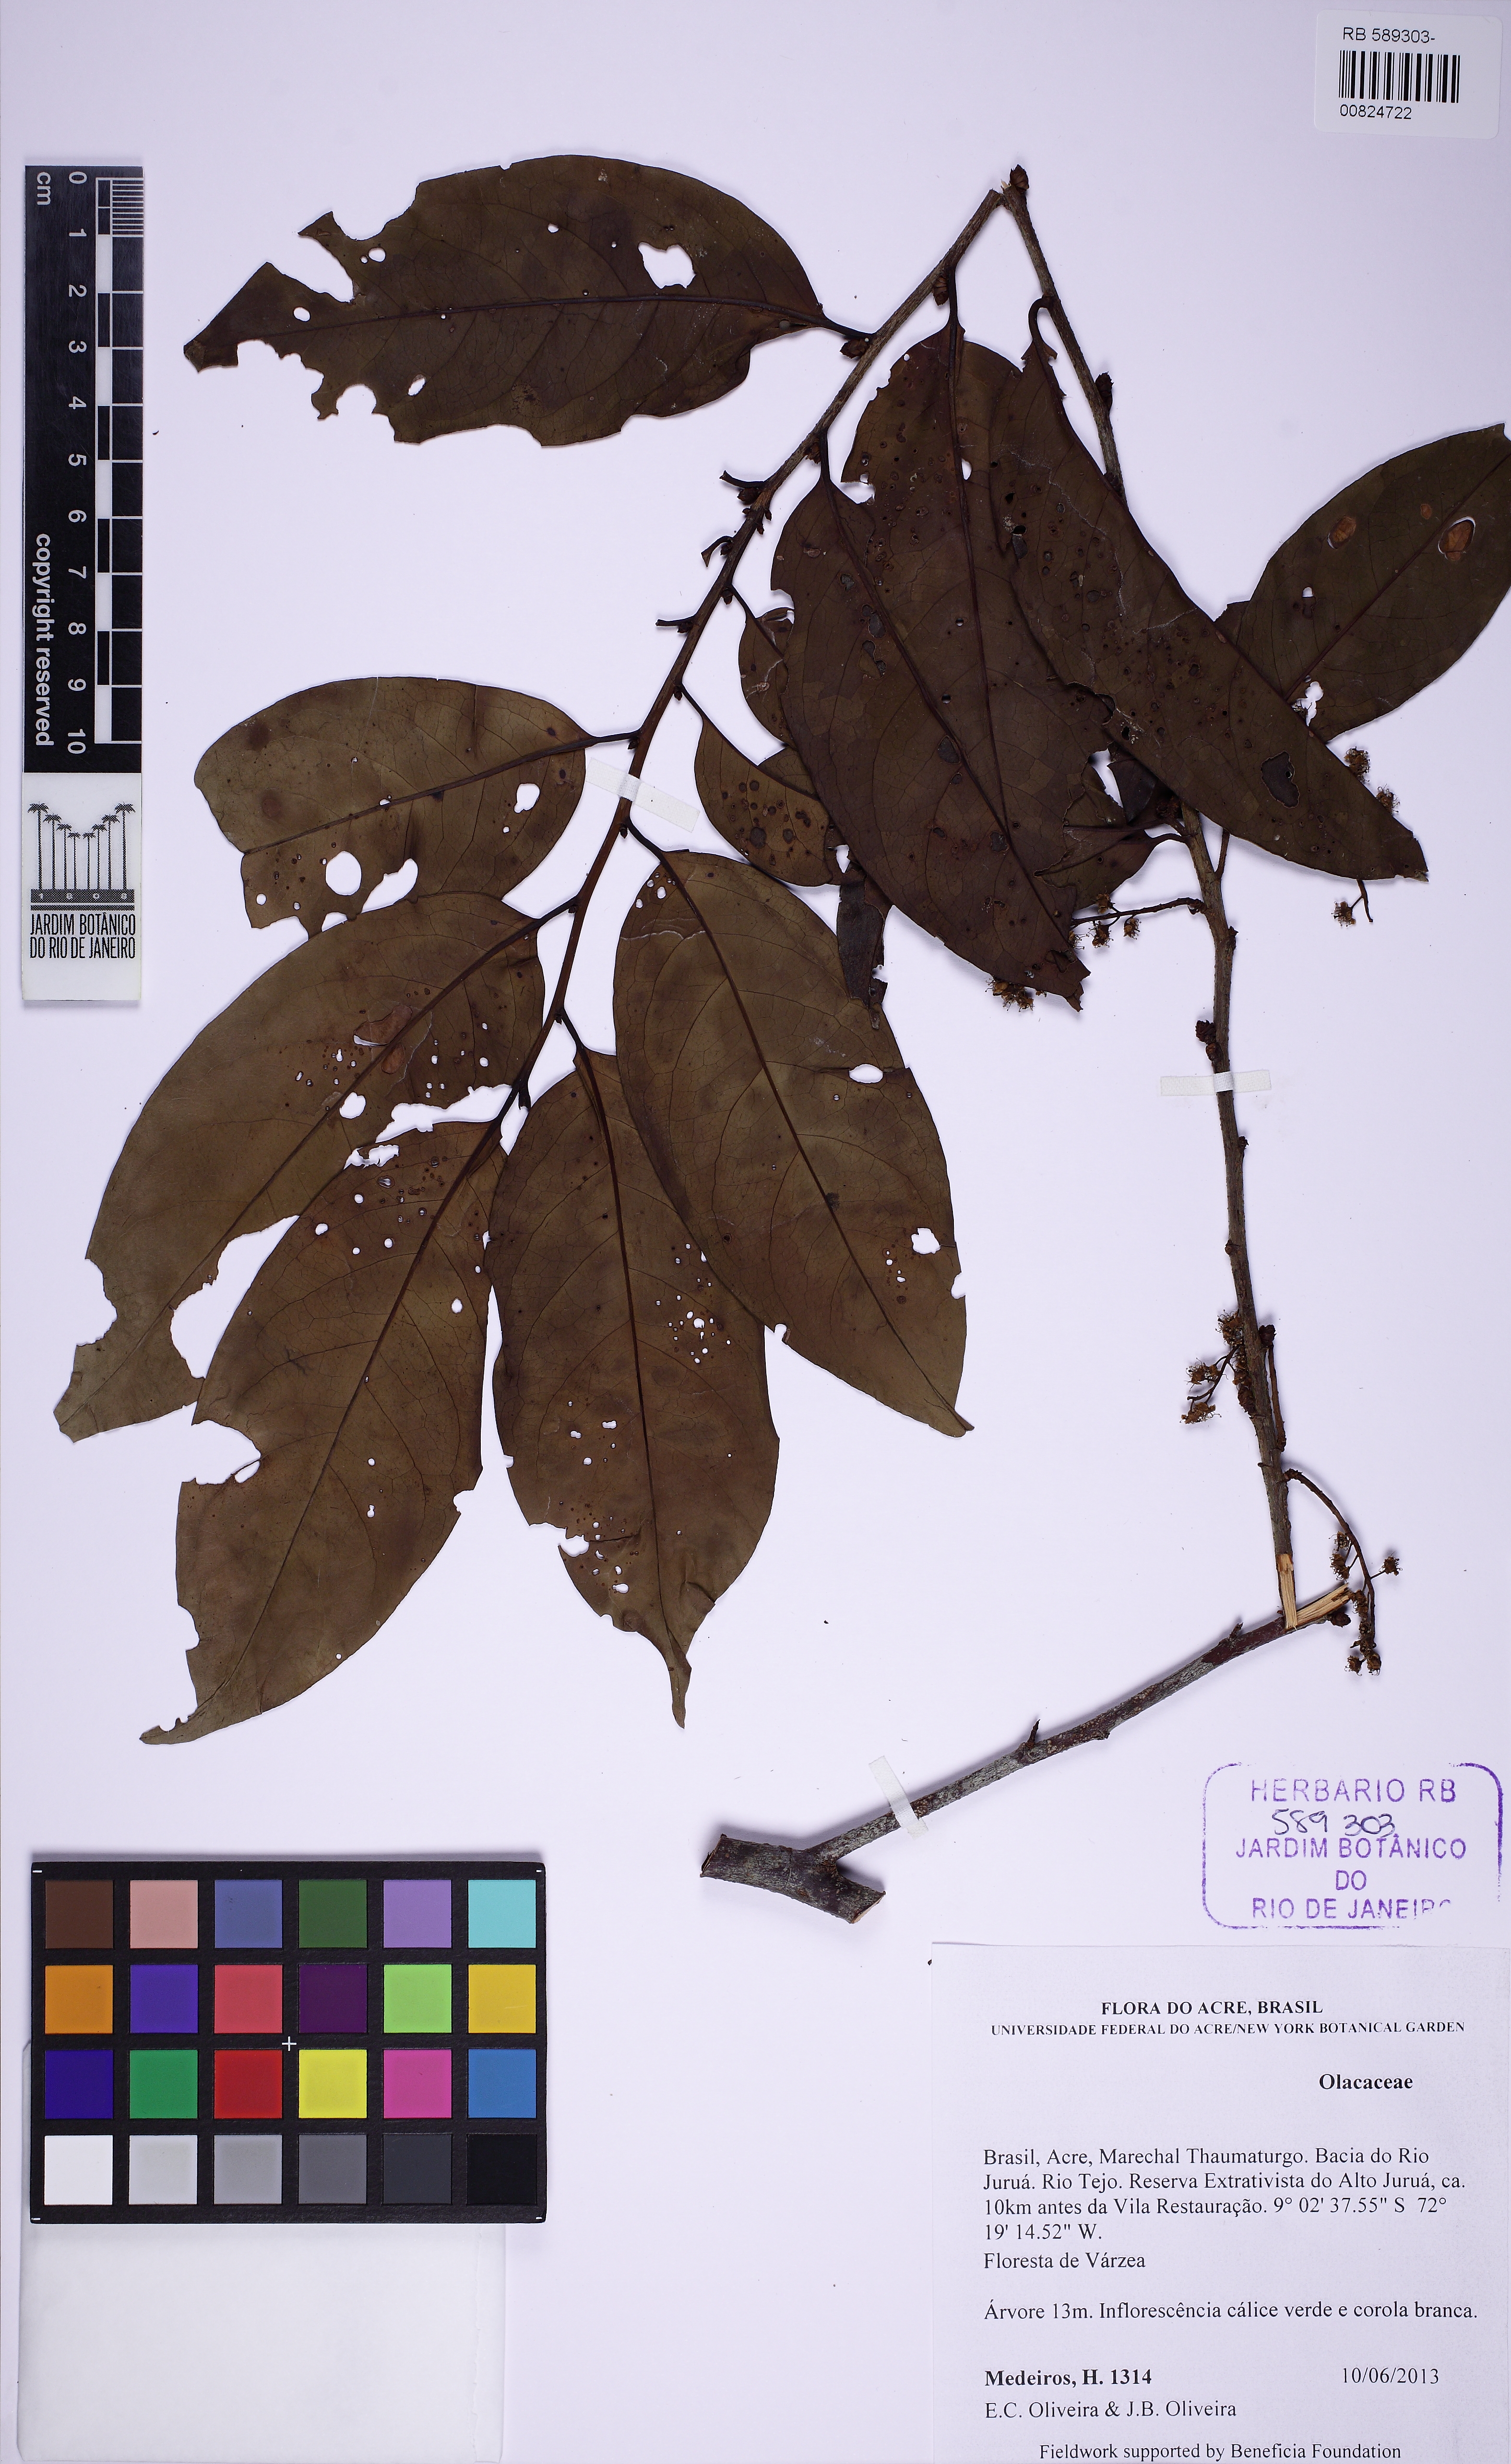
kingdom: Plantae
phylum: Tracheophyta
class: Magnoliopsida
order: Santalales
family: Olacaceae
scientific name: Olacaceae
